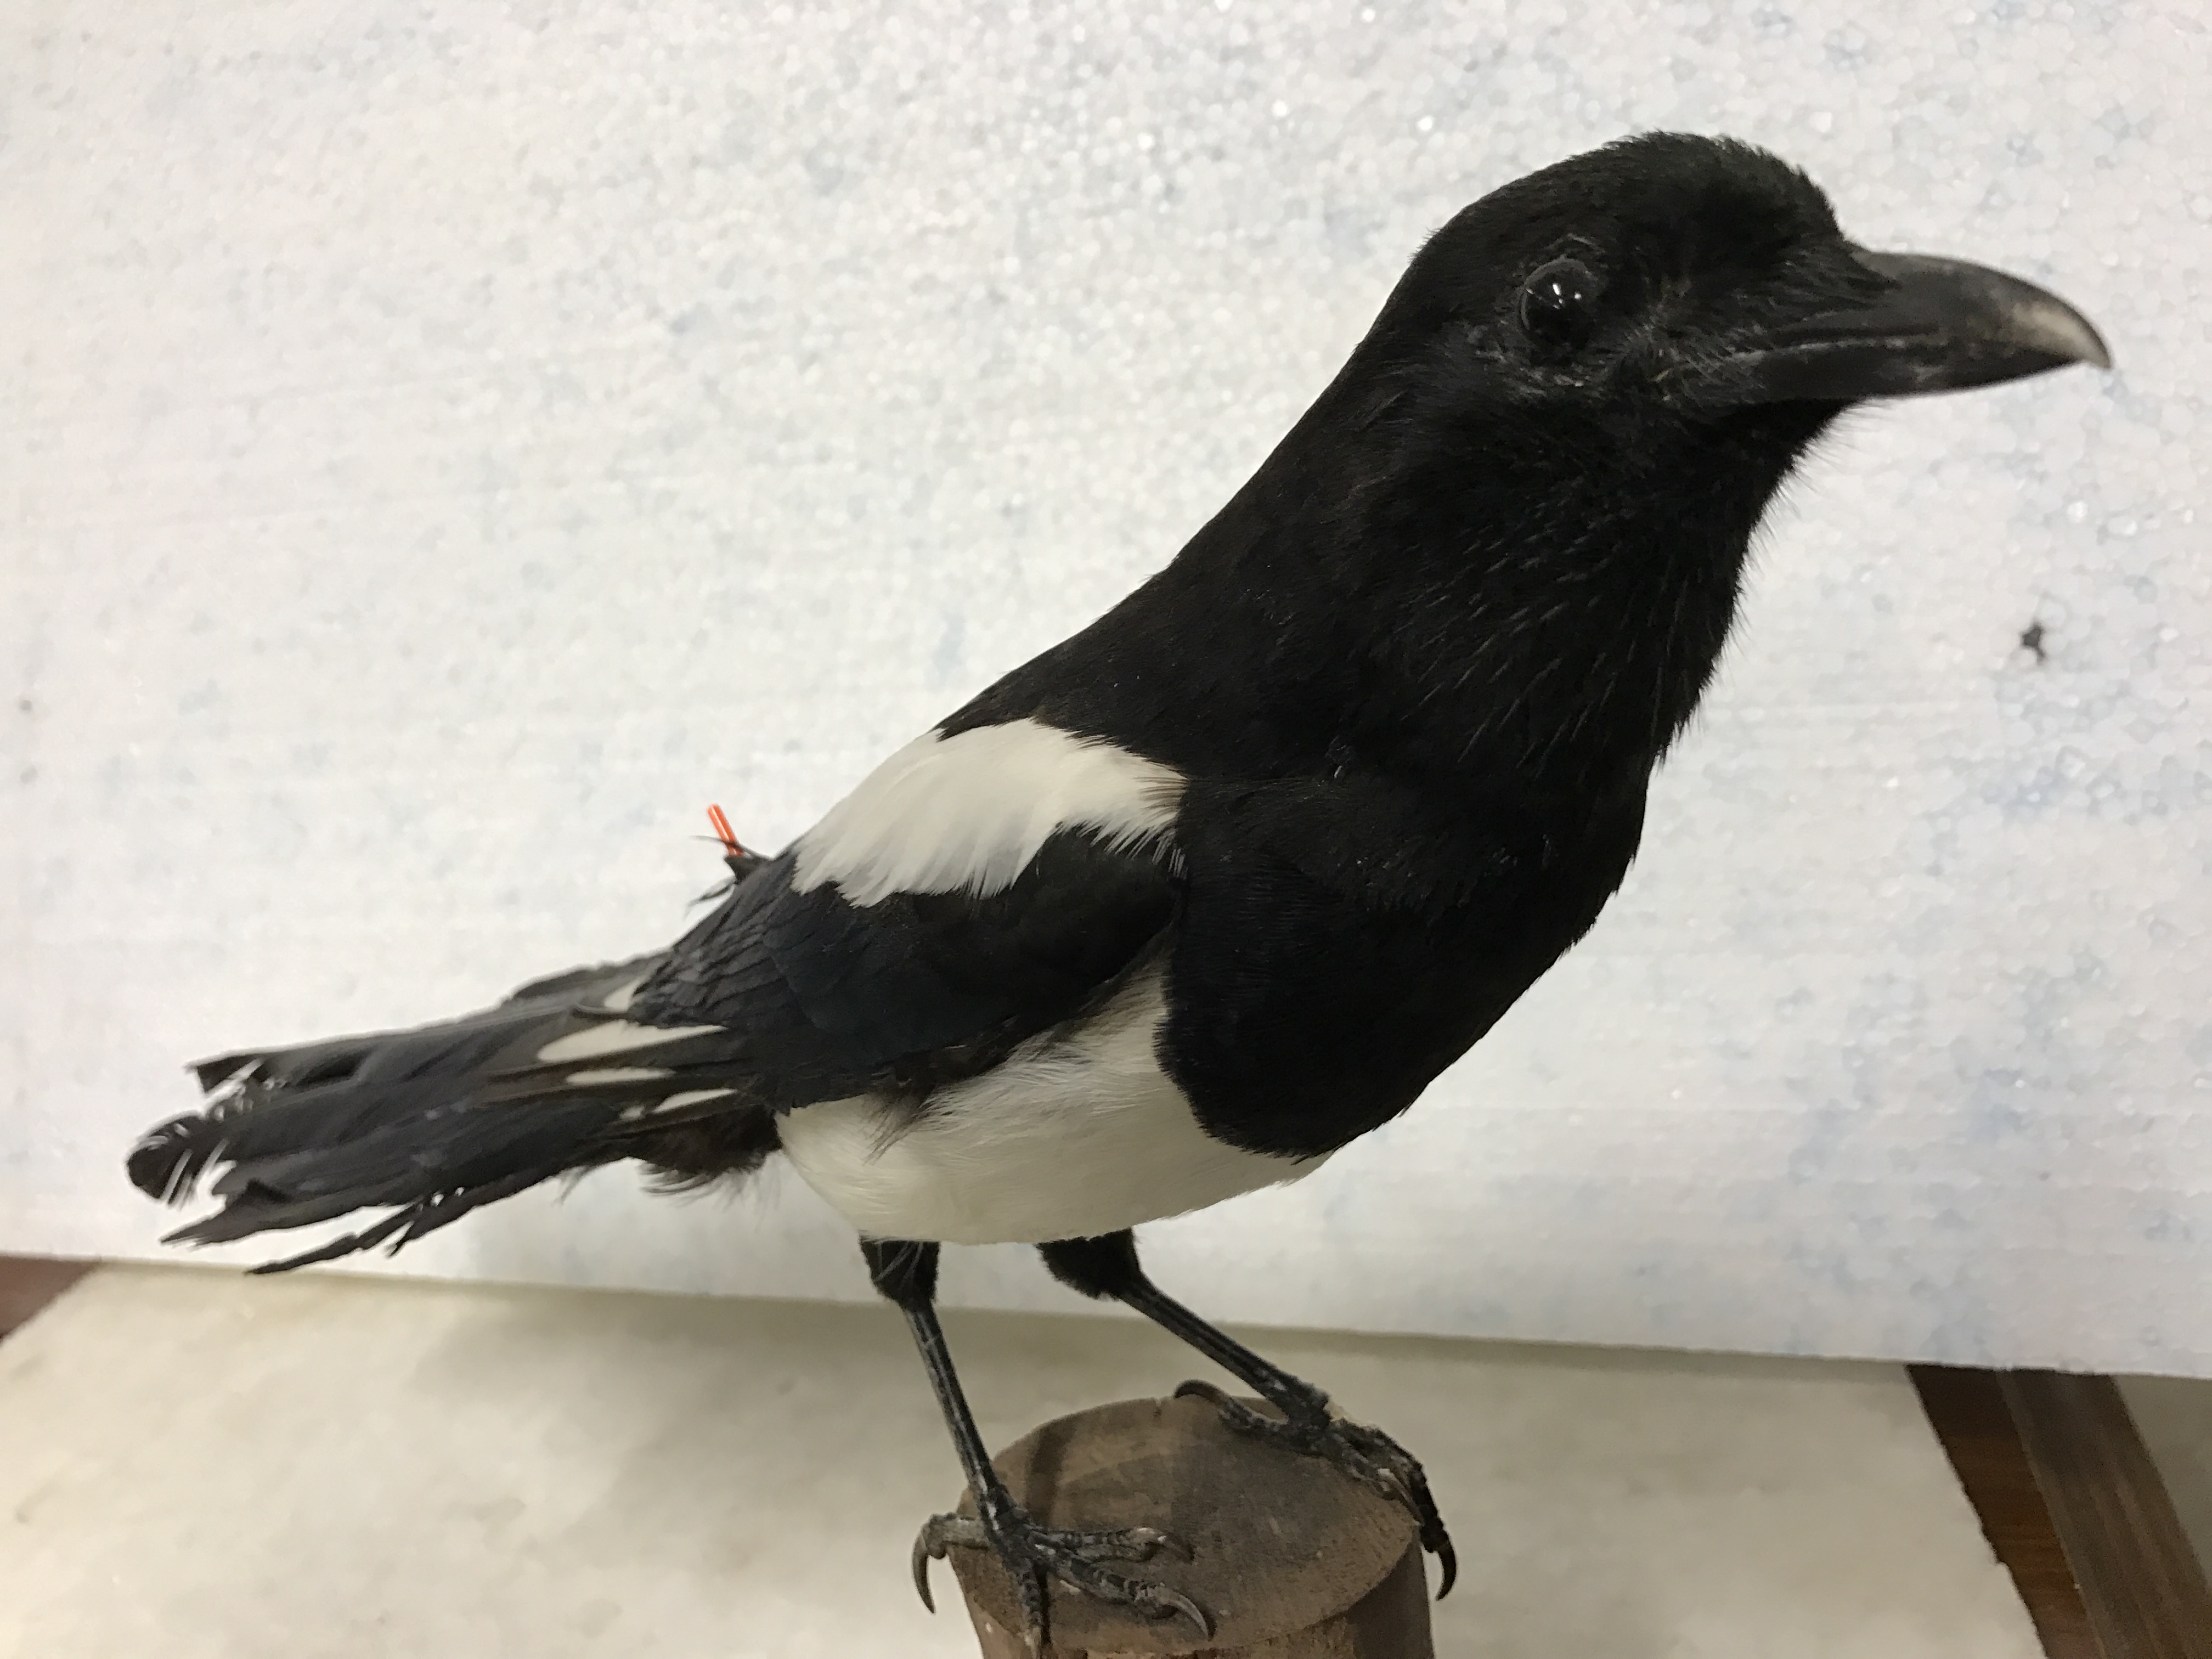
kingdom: Animalia
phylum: Chordata
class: Aves
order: Passeriformes
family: Corvidae
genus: Pica
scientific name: Pica pica
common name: Eurasian magpie
